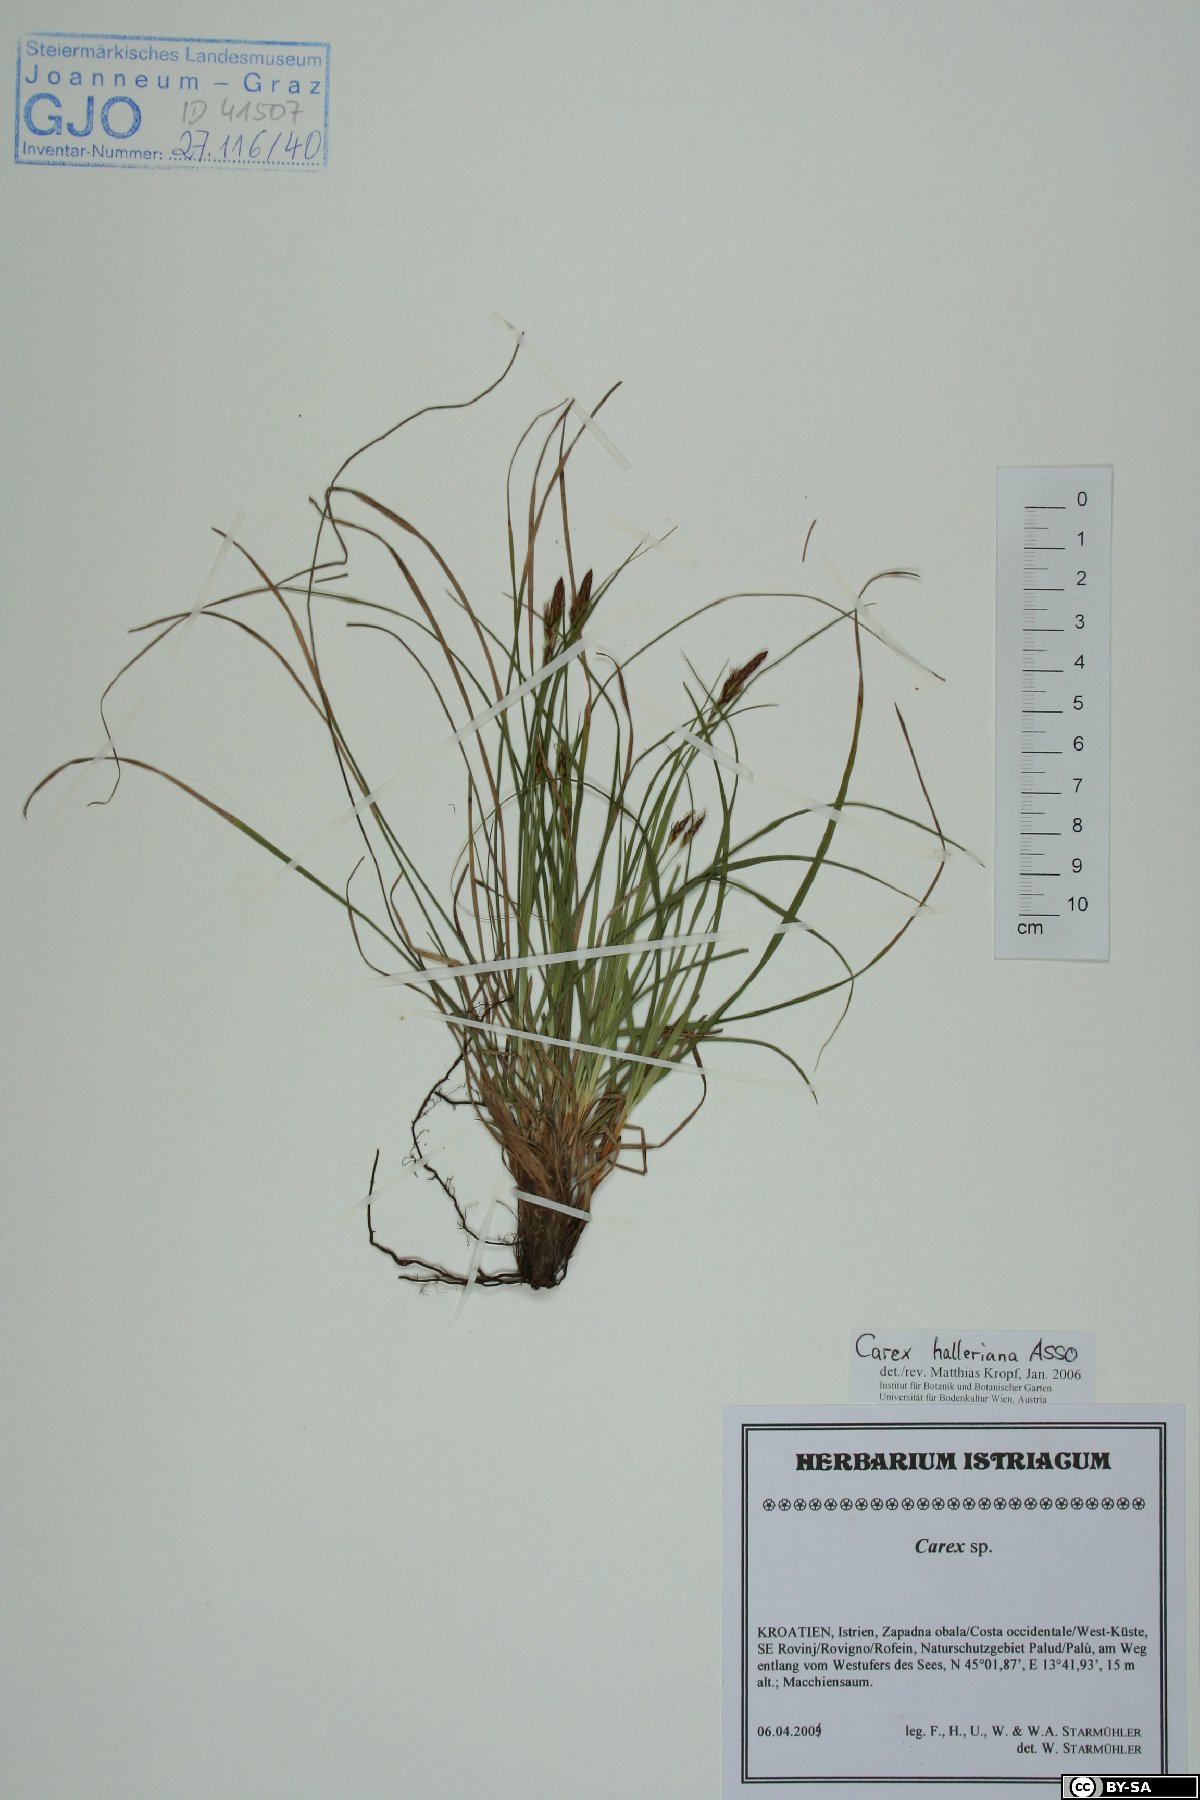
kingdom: Plantae
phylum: Tracheophyta
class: Liliopsida
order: Poales
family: Cyperaceae
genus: Carex
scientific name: Carex halleriana
